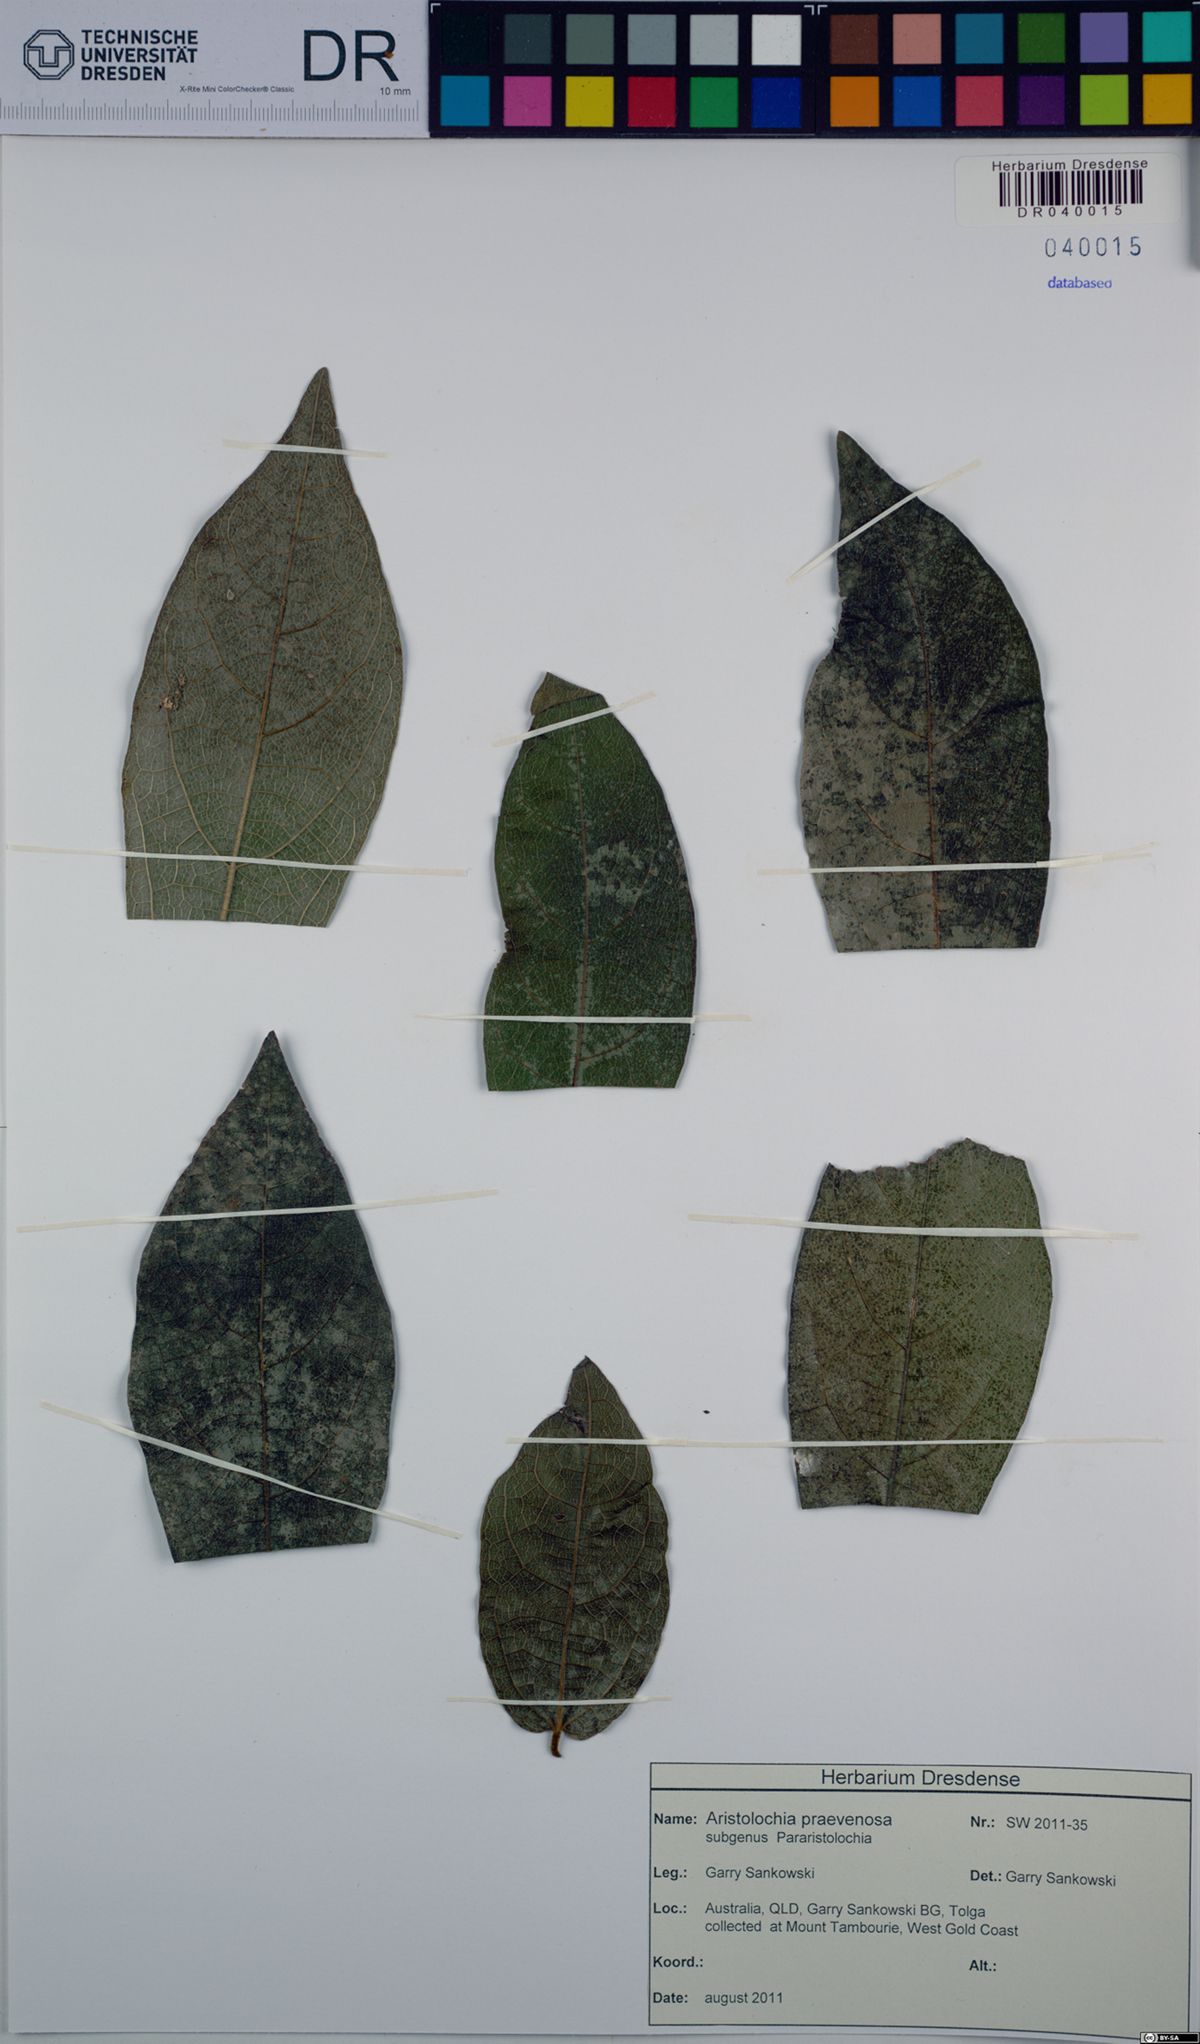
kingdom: Plantae
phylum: Tracheophyta
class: Magnoliopsida
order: Piperales
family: Aristolochiaceae
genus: Aristolochia
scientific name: Aristolochia praevenosa
